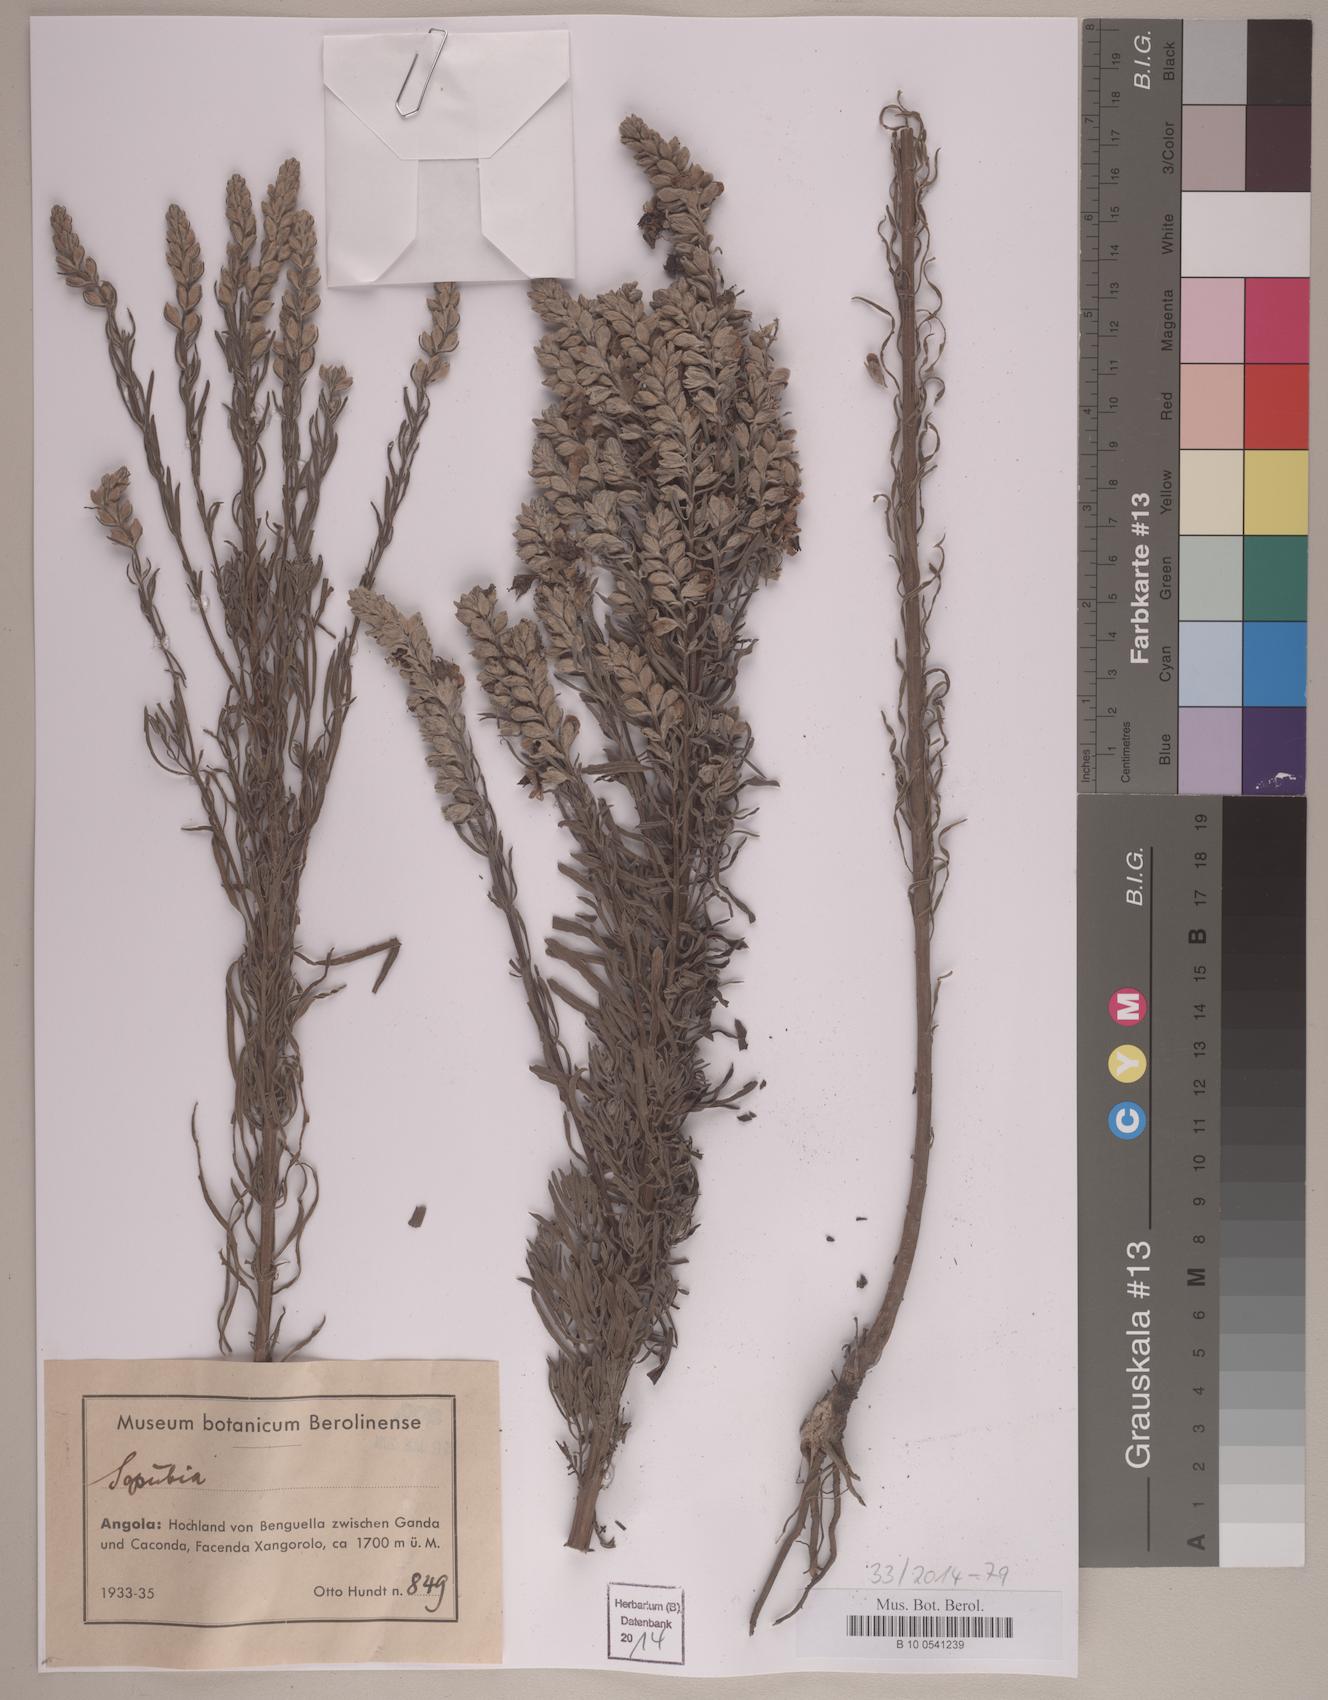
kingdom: Plantae
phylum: Tracheophyta
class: Magnoliopsida
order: Lamiales
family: Orobanchaceae
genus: Sopubia
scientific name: Sopubia
